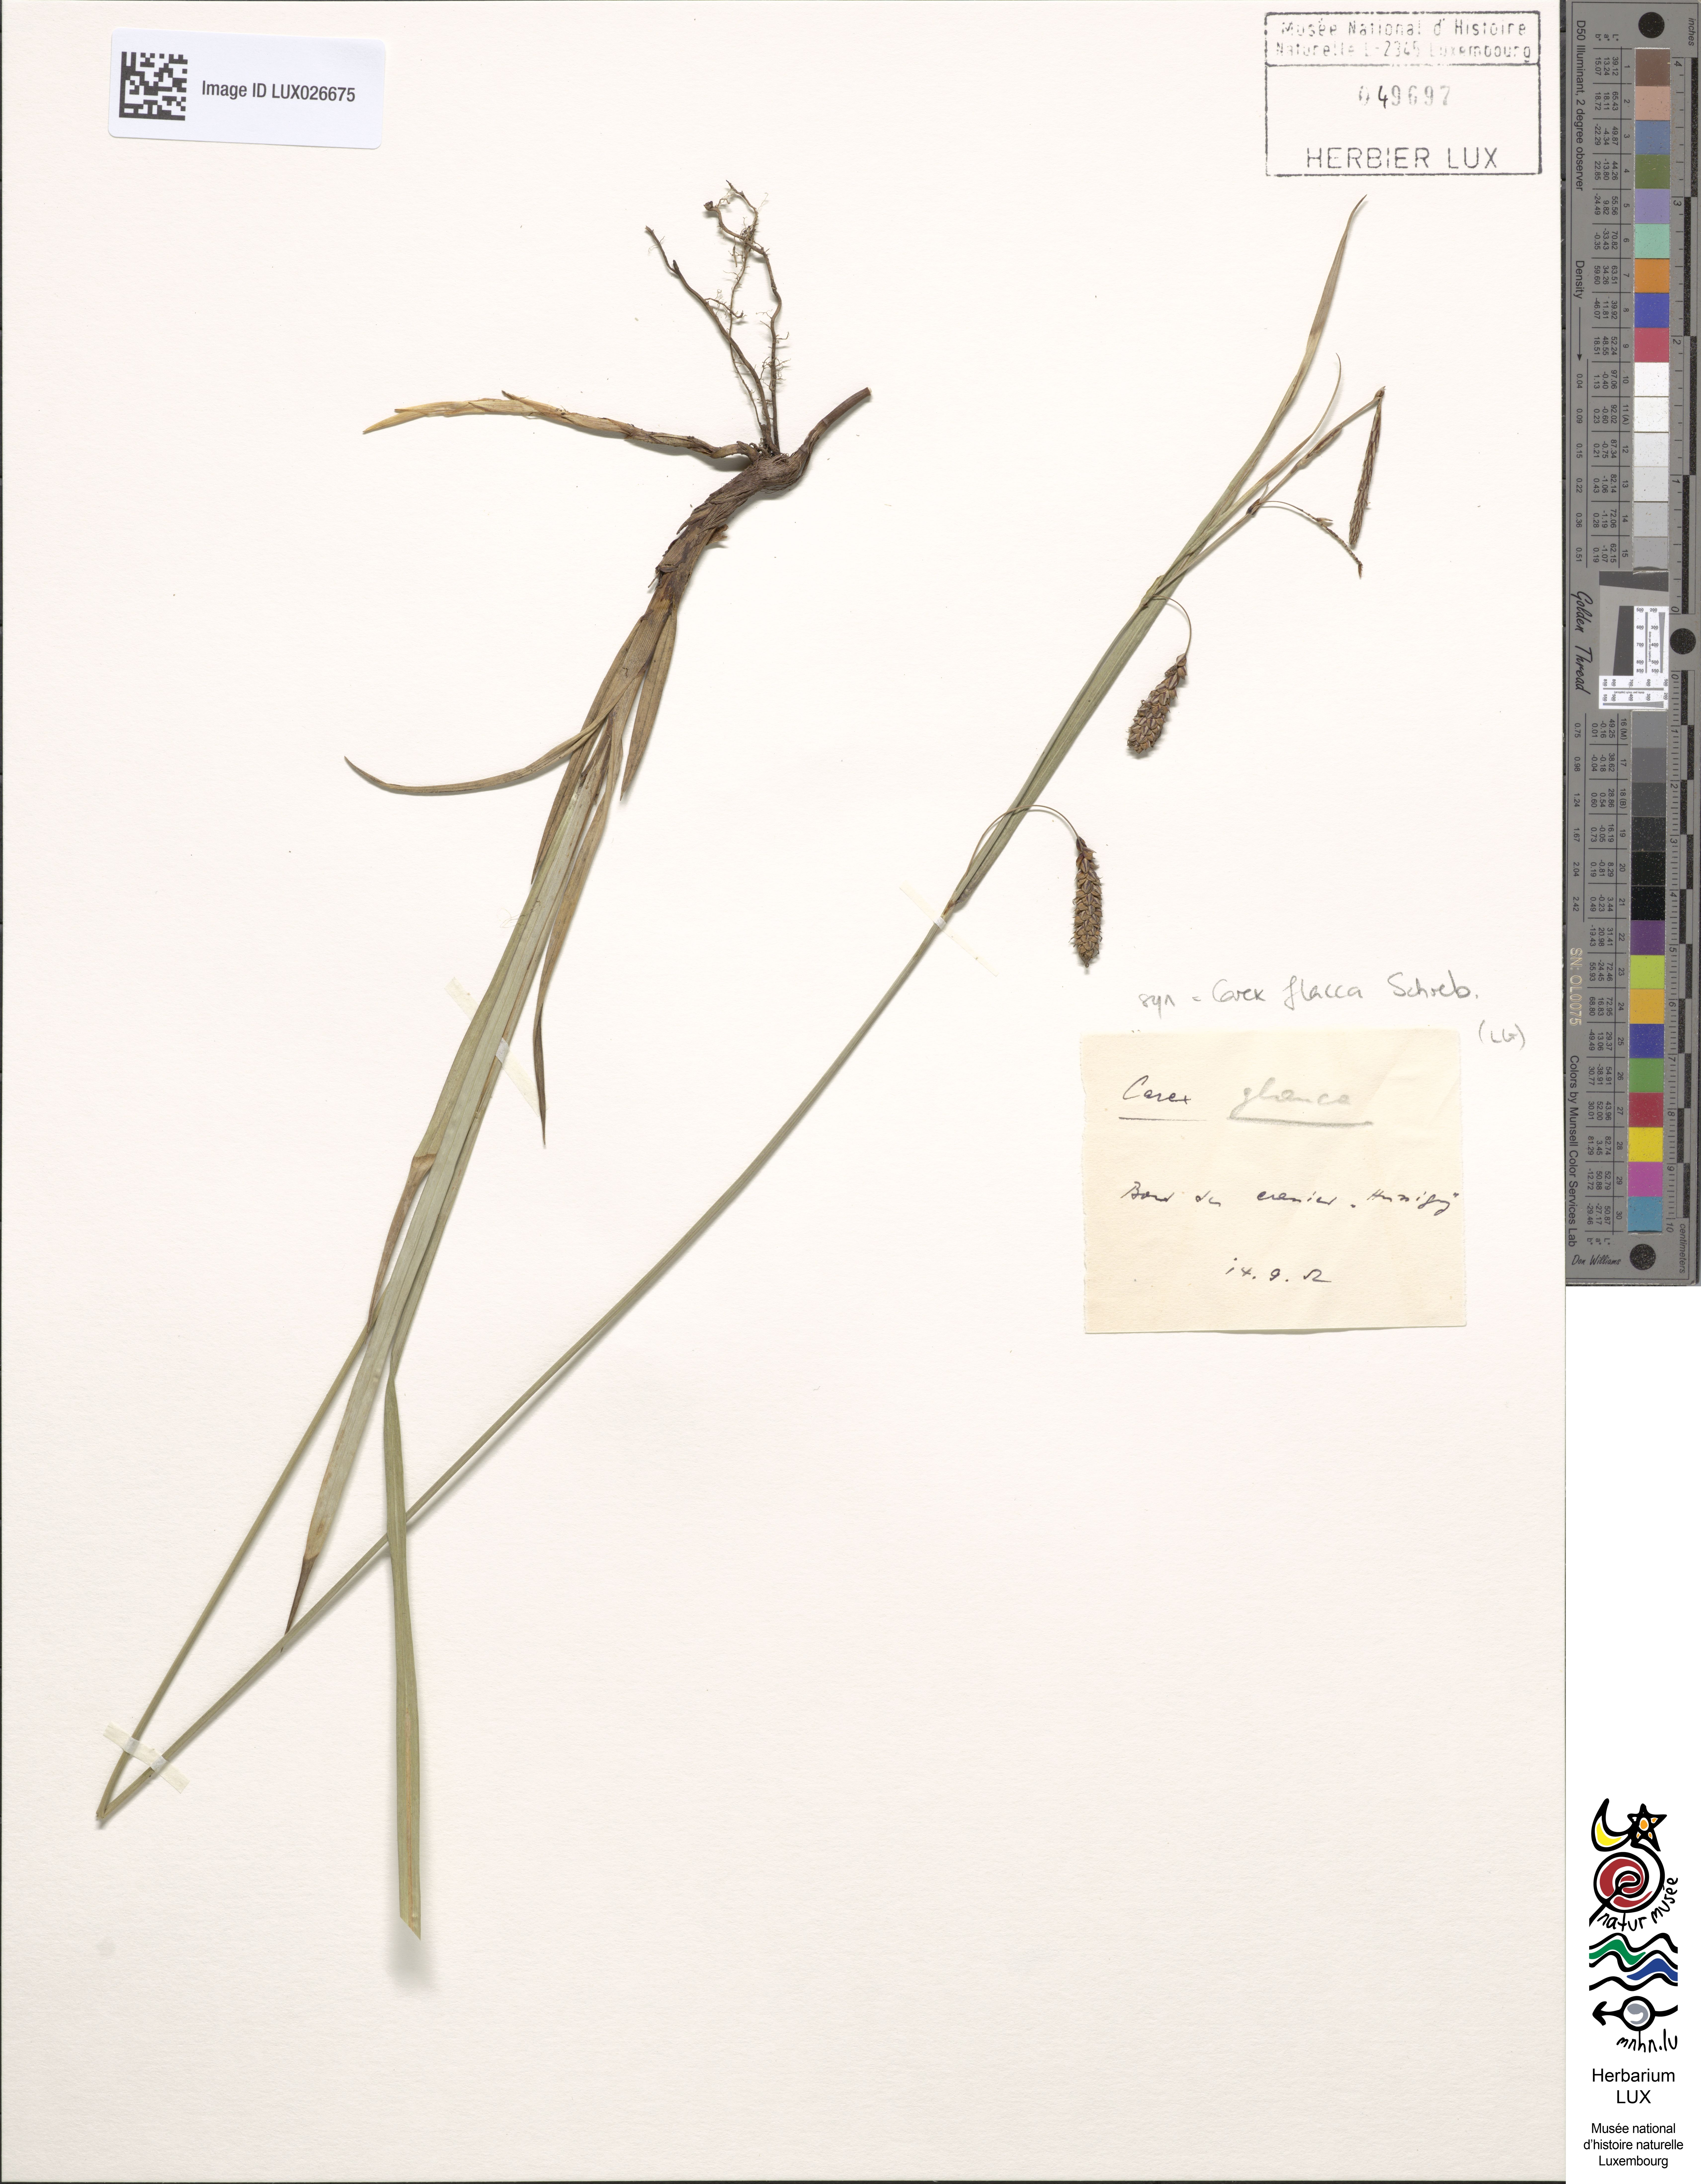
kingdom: Plantae
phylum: Tracheophyta
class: Liliopsida
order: Poales
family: Cyperaceae
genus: Carex
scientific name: Carex flacca
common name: Glaucous sedge
